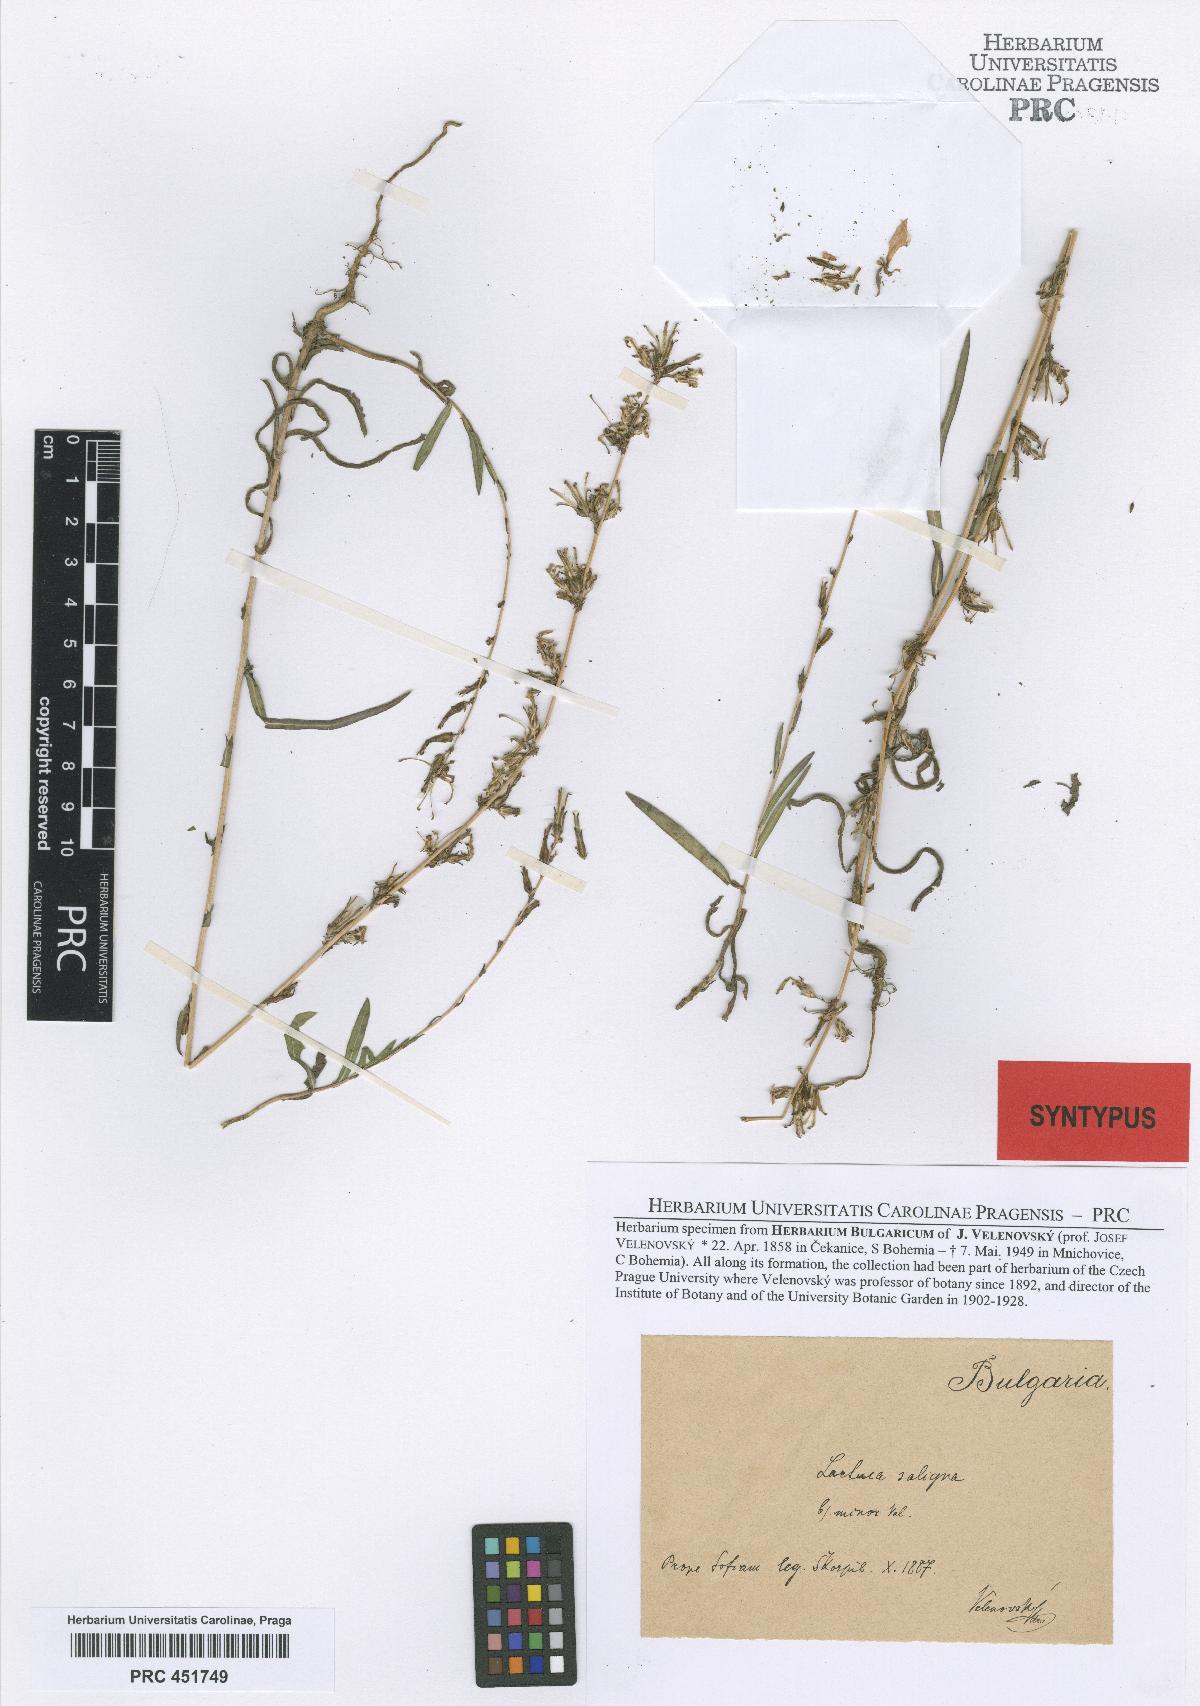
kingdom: Plantae
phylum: Tracheophyta
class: Magnoliopsida
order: Asterales
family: Asteraceae
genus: Lactuca
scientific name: Lactuca saligna
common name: Wild lettuce
